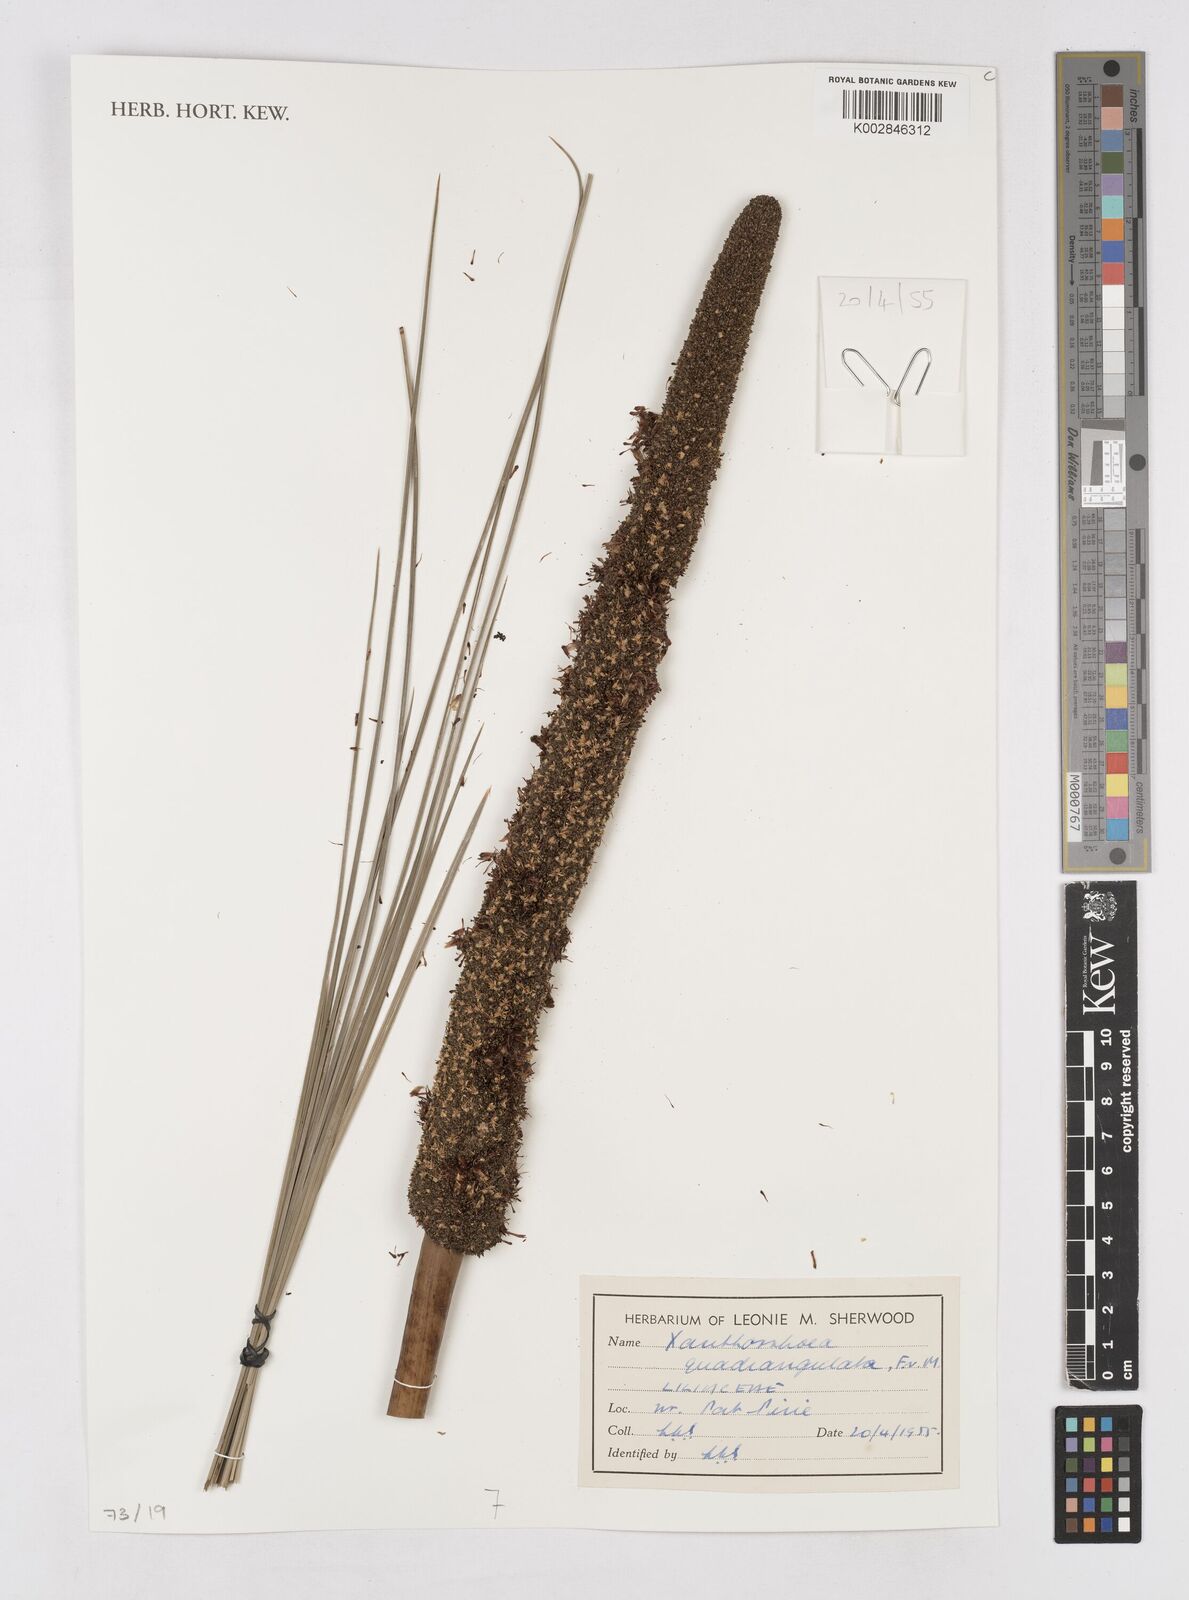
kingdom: Plantae
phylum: Tracheophyta
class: Liliopsida
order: Asparagales
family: Asphodelaceae
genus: Xanthorrhoea
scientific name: Xanthorrhoea quadrangulata
